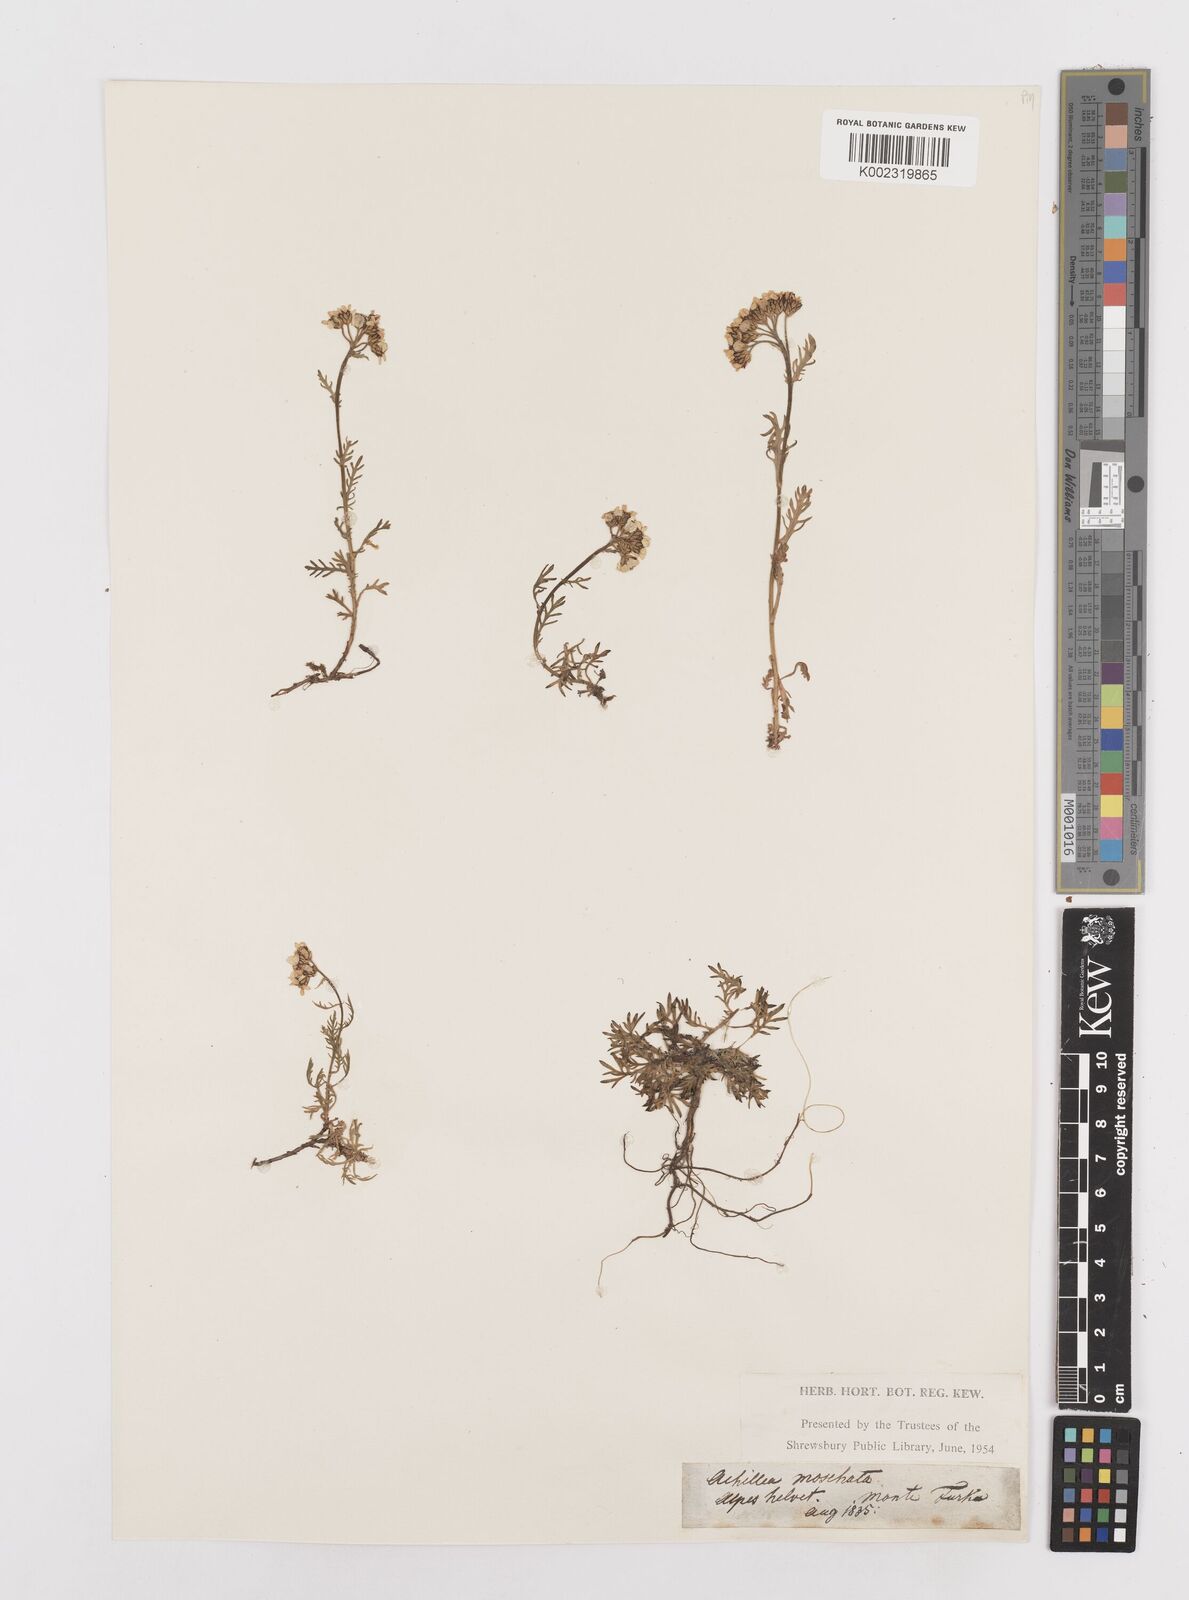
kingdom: Plantae
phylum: Tracheophyta
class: Magnoliopsida
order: Asterales
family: Asteraceae
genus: Achillea
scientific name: Achillea erba-rotta
